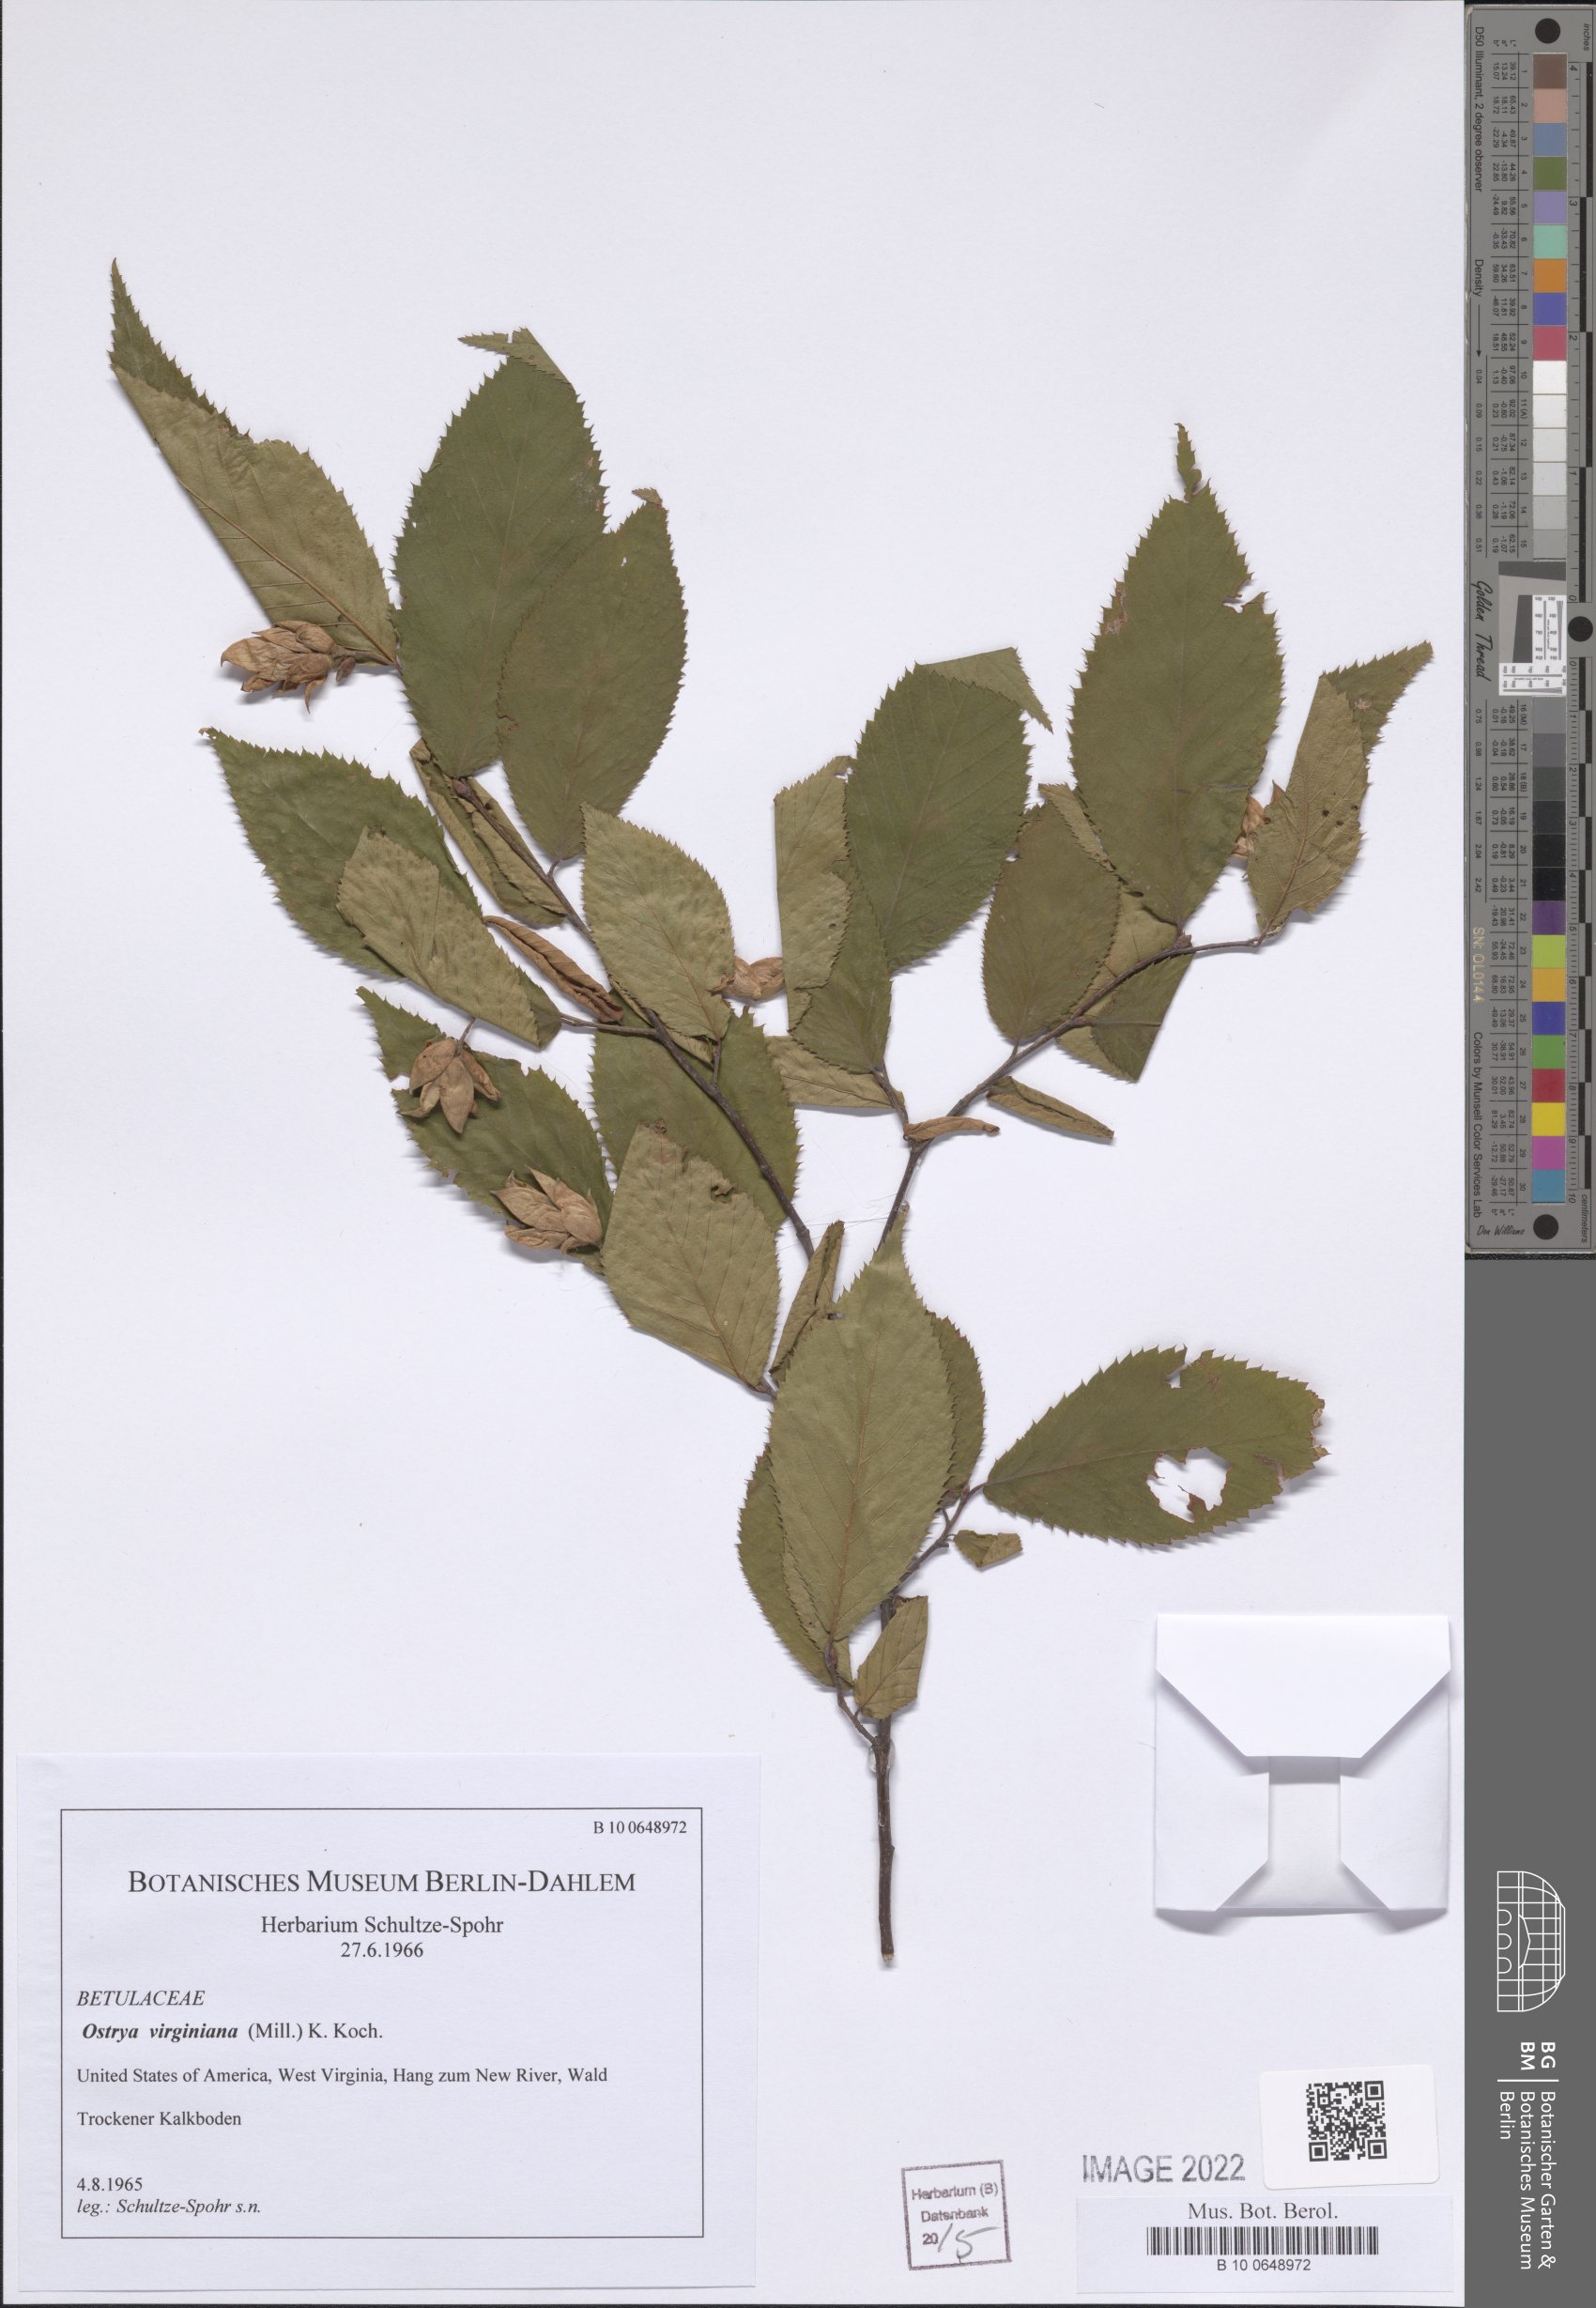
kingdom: Plantae
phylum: Tracheophyta
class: Magnoliopsida
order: Fagales
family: Betulaceae
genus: Ostrya
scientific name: Ostrya virginiana
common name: Ironwood
